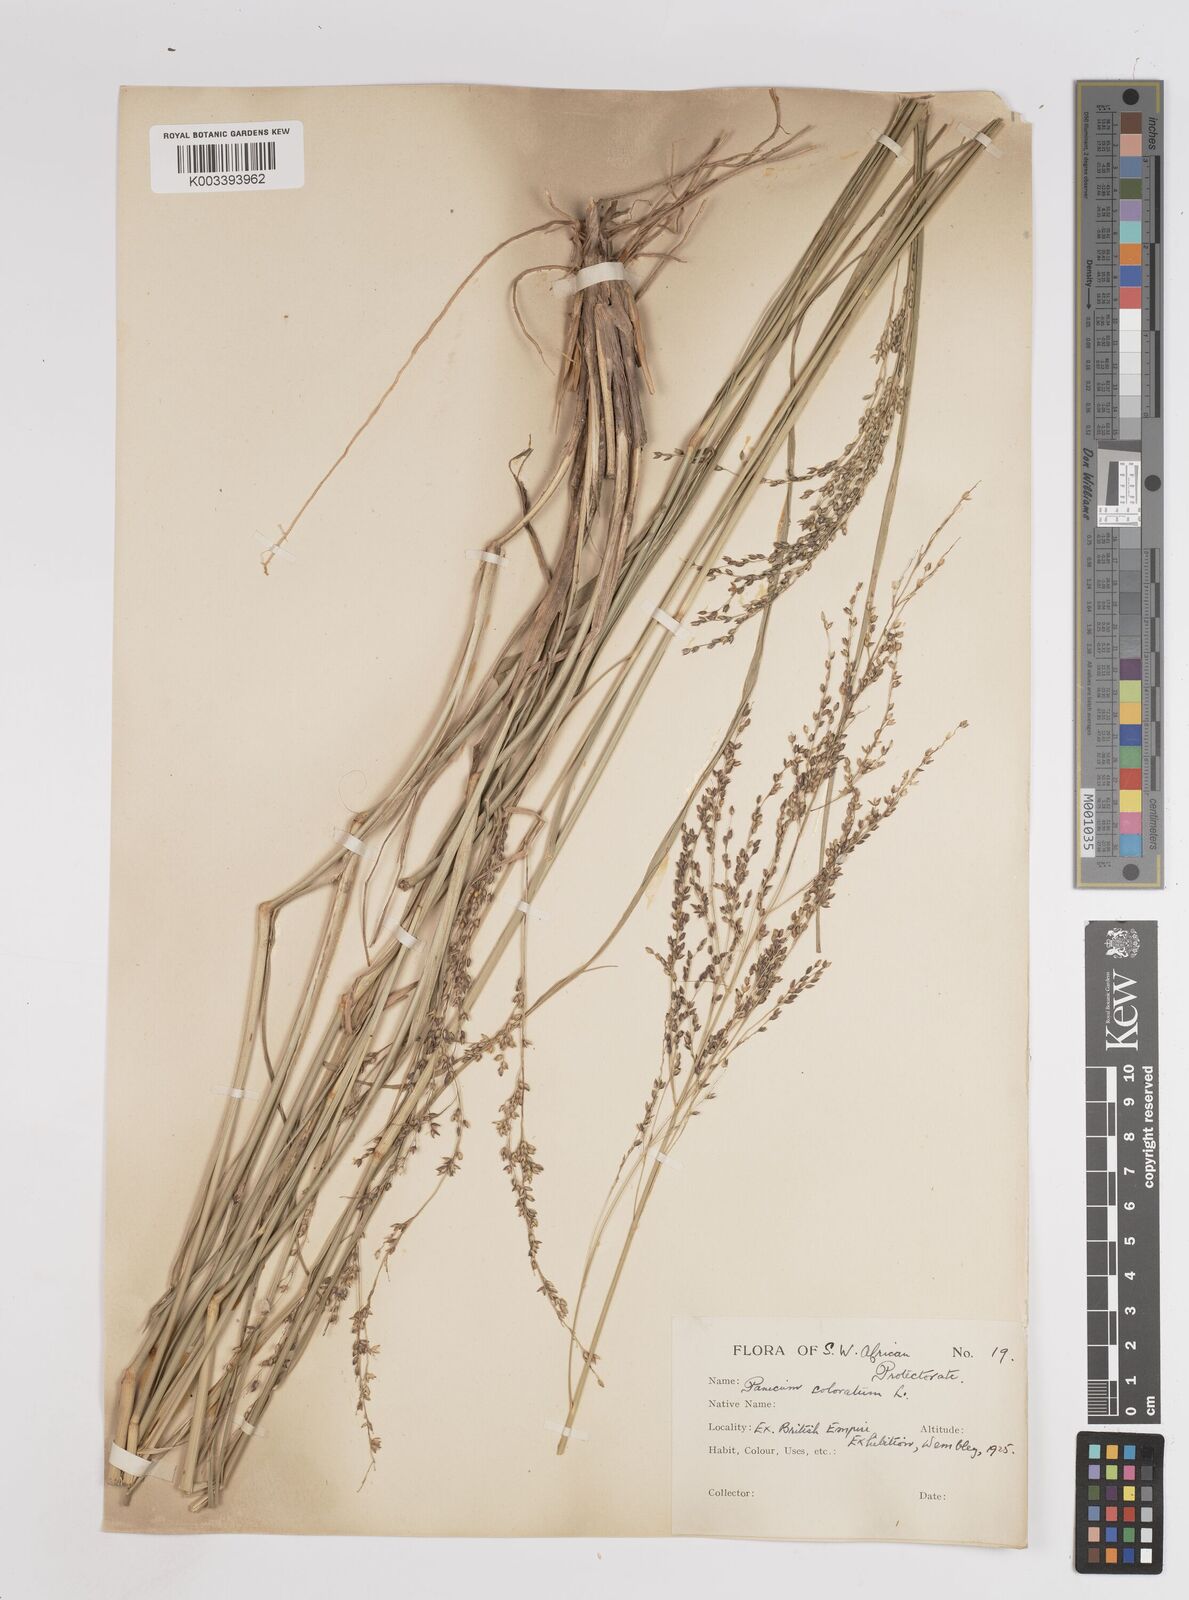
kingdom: Plantae
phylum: Tracheophyta
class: Liliopsida
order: Poales
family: Poaceae
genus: Panicum
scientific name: Panicum coloratum
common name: Kleingrass
